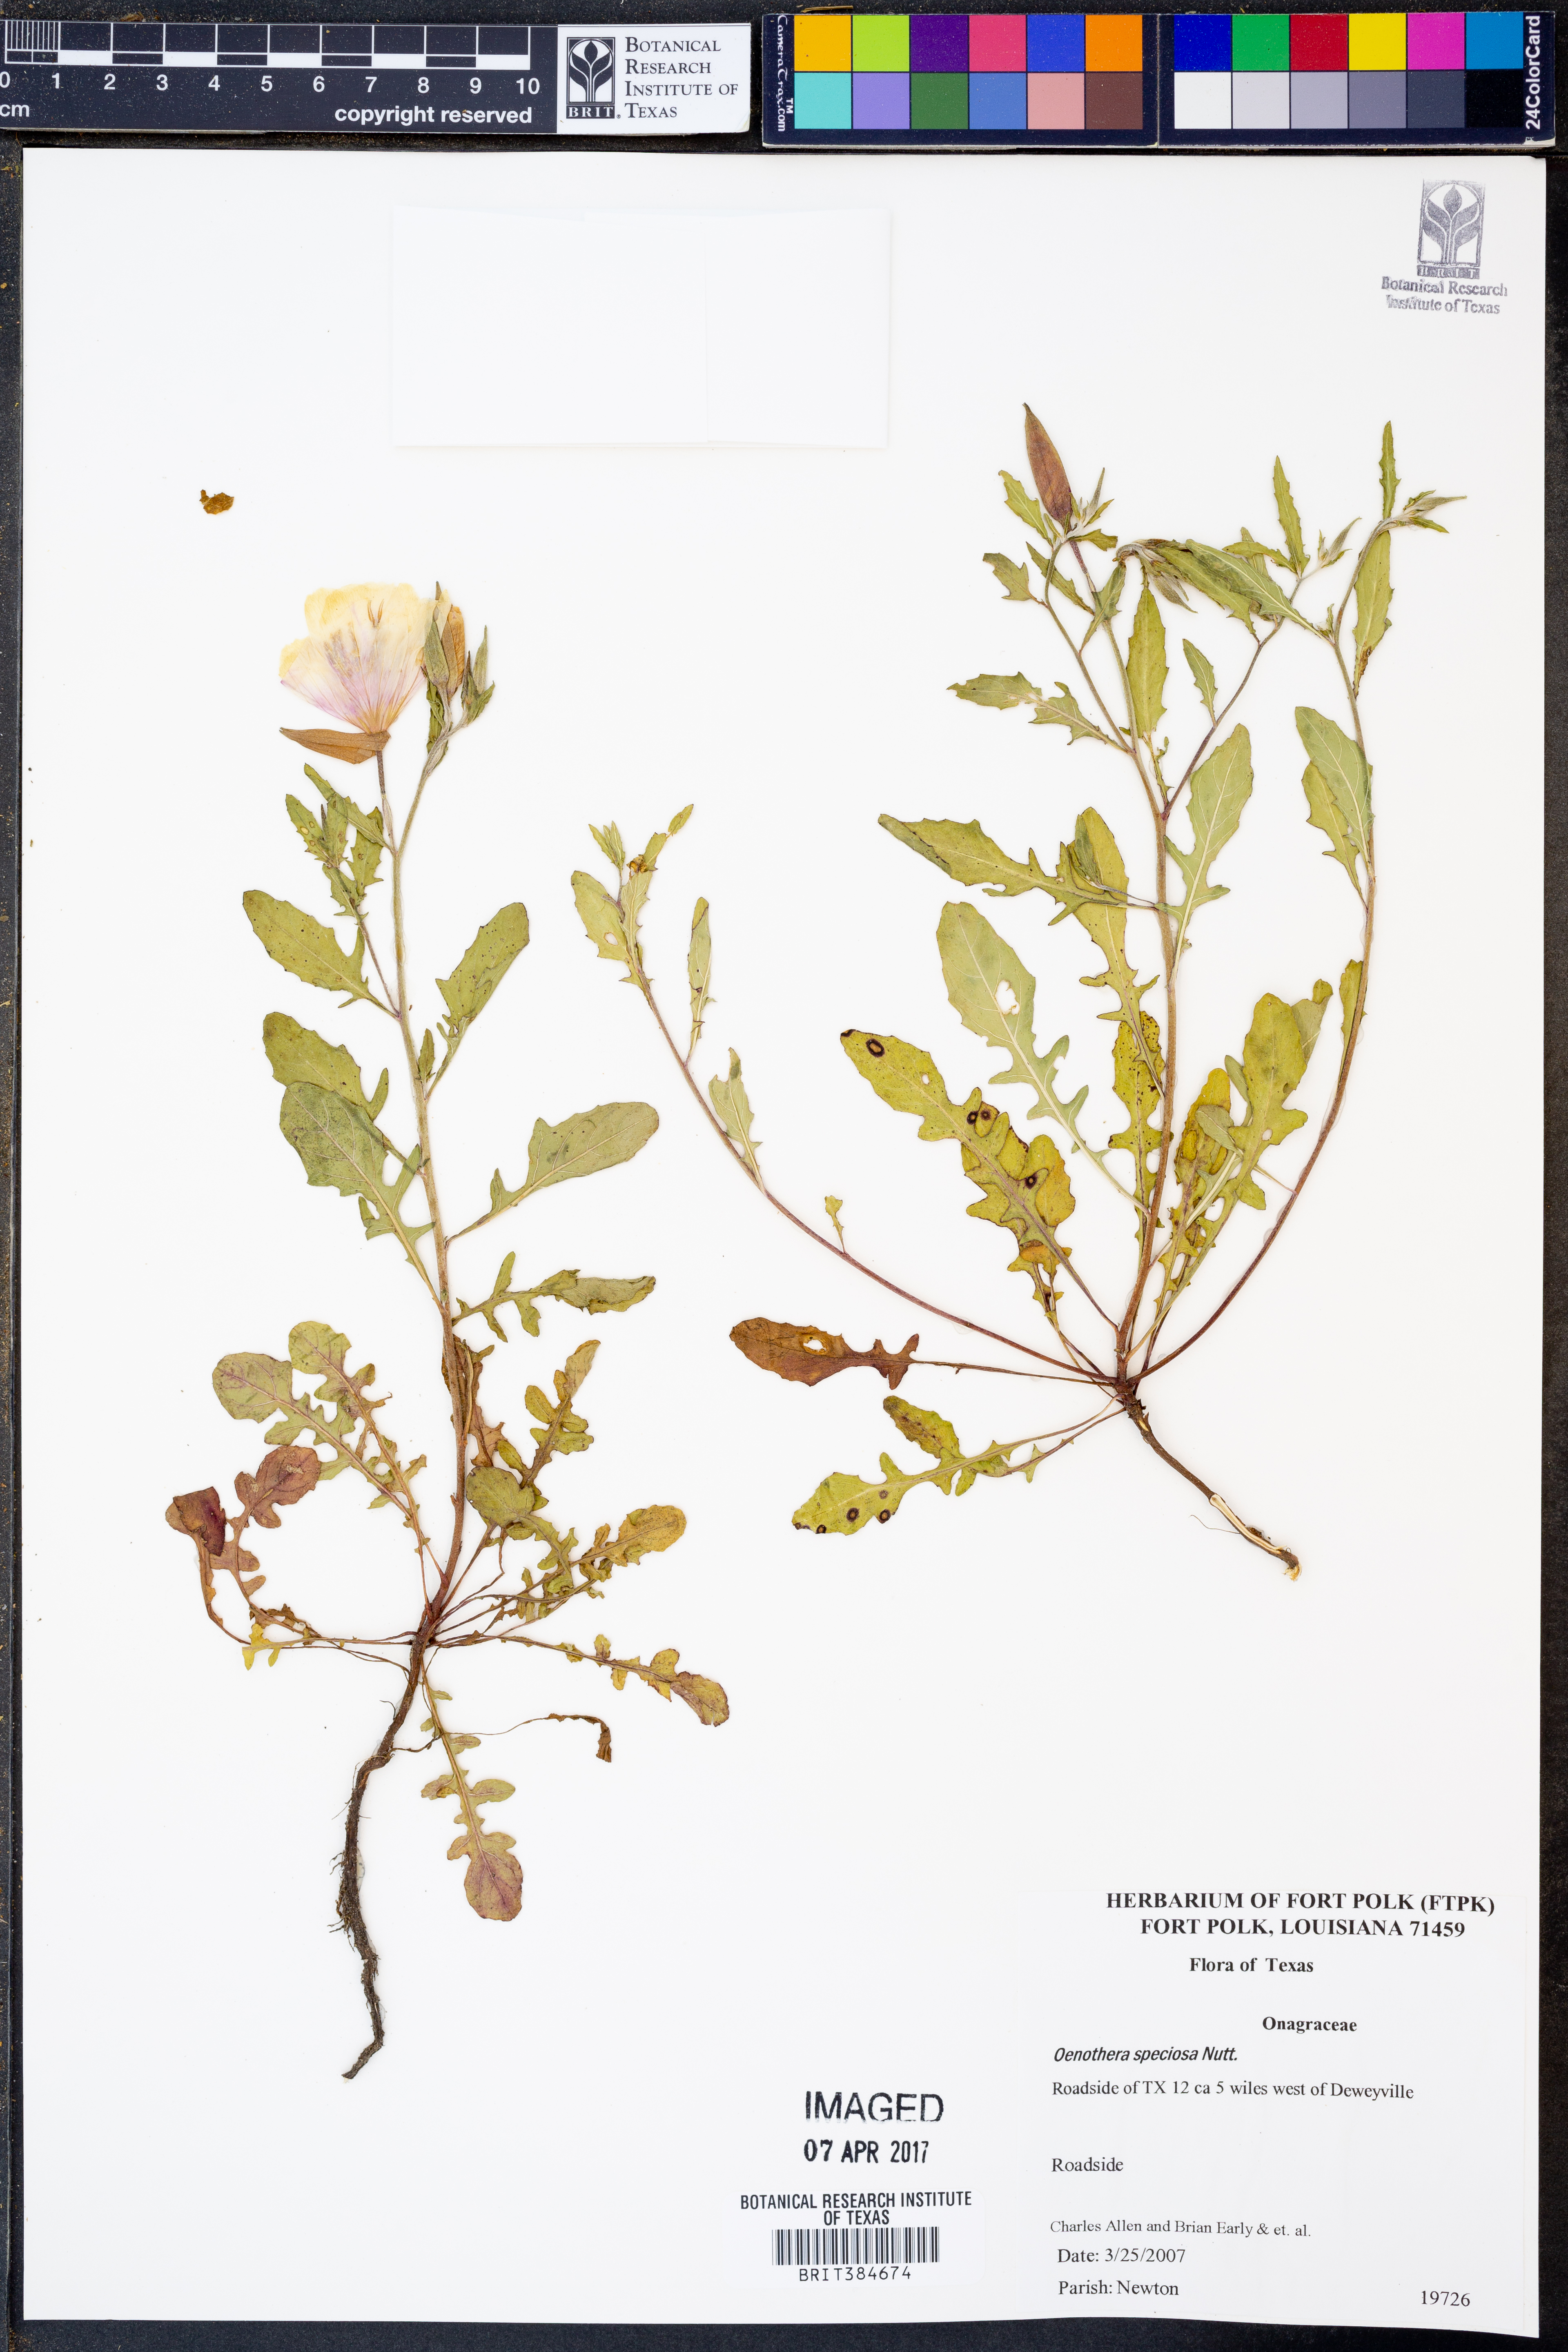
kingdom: Plantae
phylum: Tracheophyta
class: Magnoliopsida
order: Myrtales
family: Onagraceae
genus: Oenothera
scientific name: Oenothera speciosa
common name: White evening-primrose
